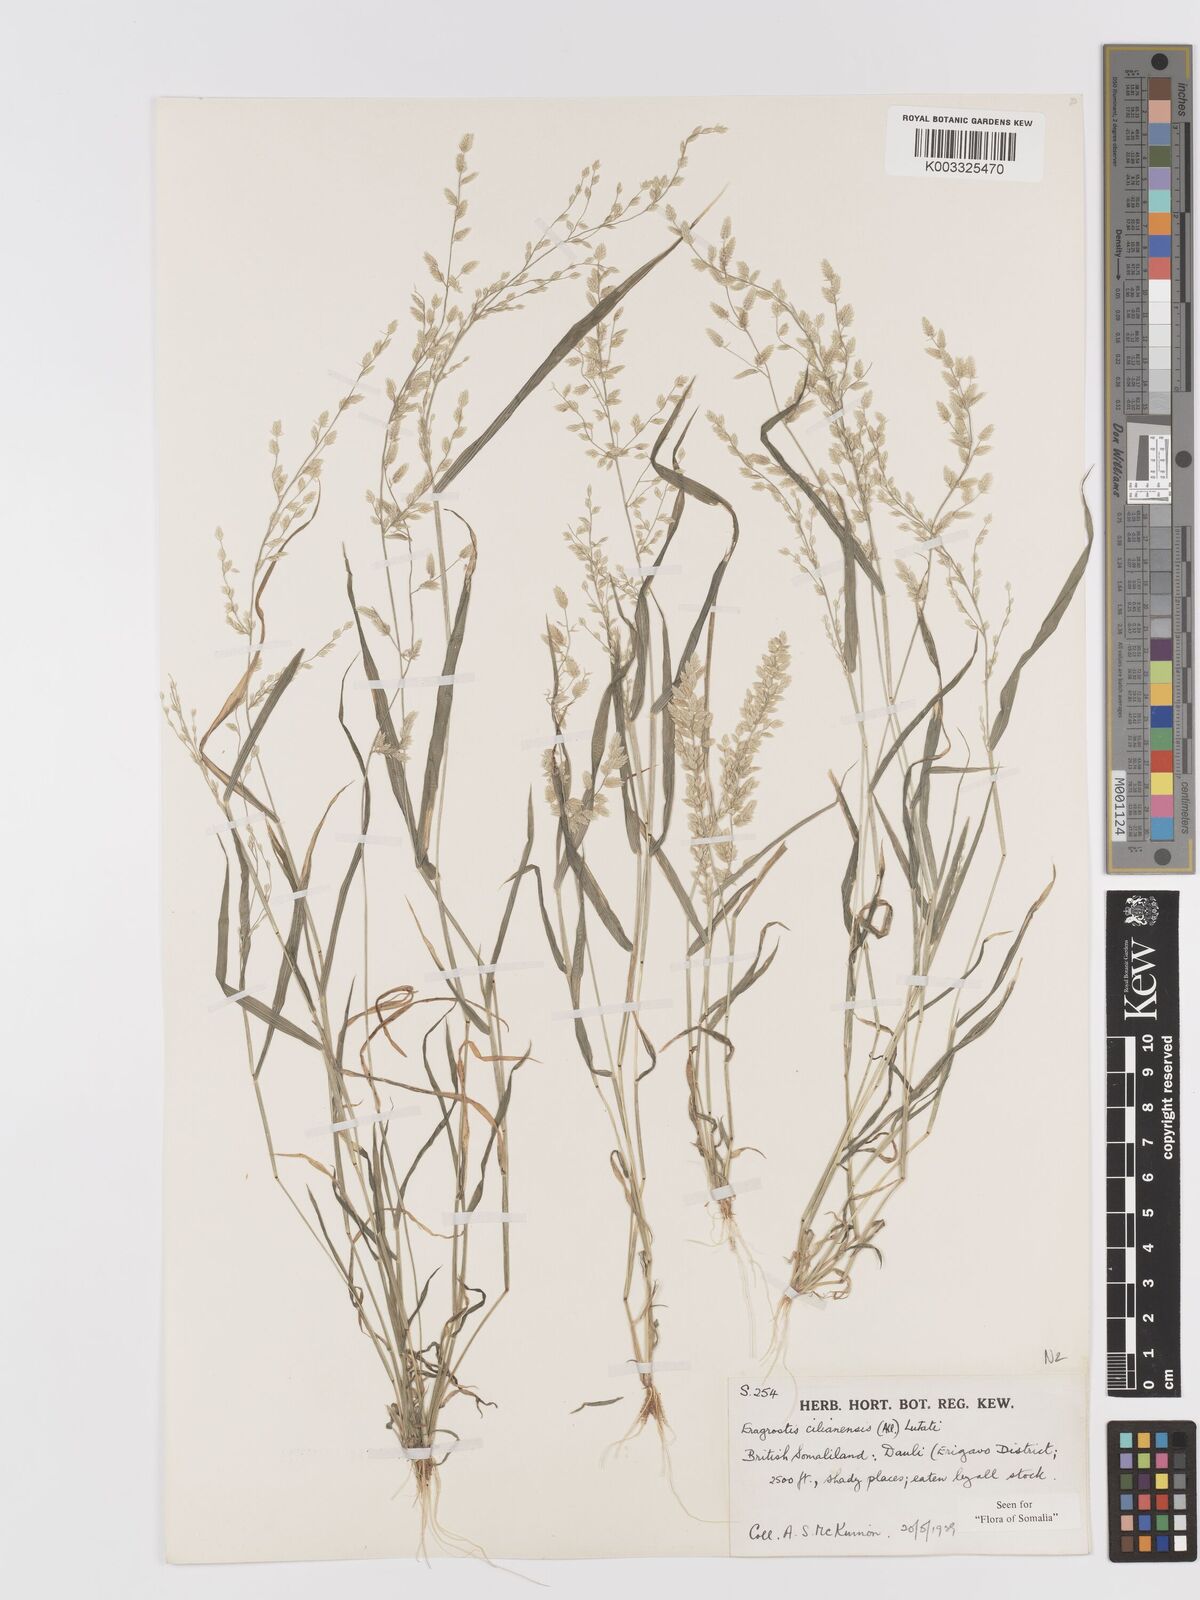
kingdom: Plantae
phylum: Tracheophyta
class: Liliopsida
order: Poales
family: Poaceae
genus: Eragrostis
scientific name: Eragrostis cilianensis
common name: Stinkgrass
